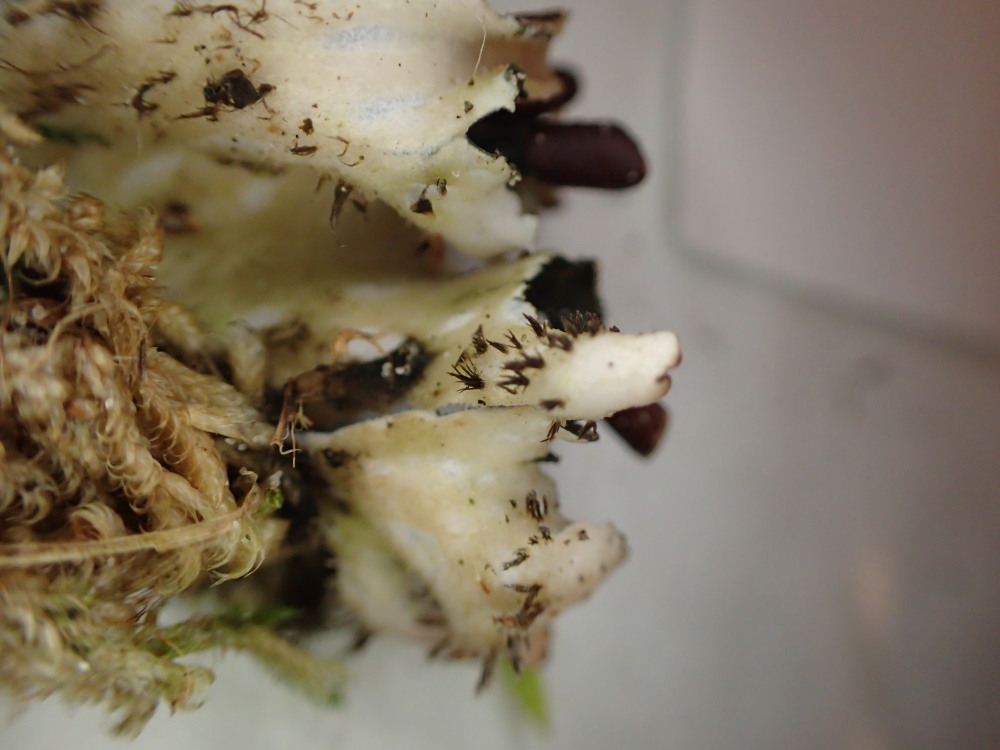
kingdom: Fungi
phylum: Ascomycota
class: Lecanoromycetes
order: Peltigerales
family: Peltigeraceae
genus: Peltigera
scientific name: Peltigera neckeri
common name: glinsende skjoldlav
